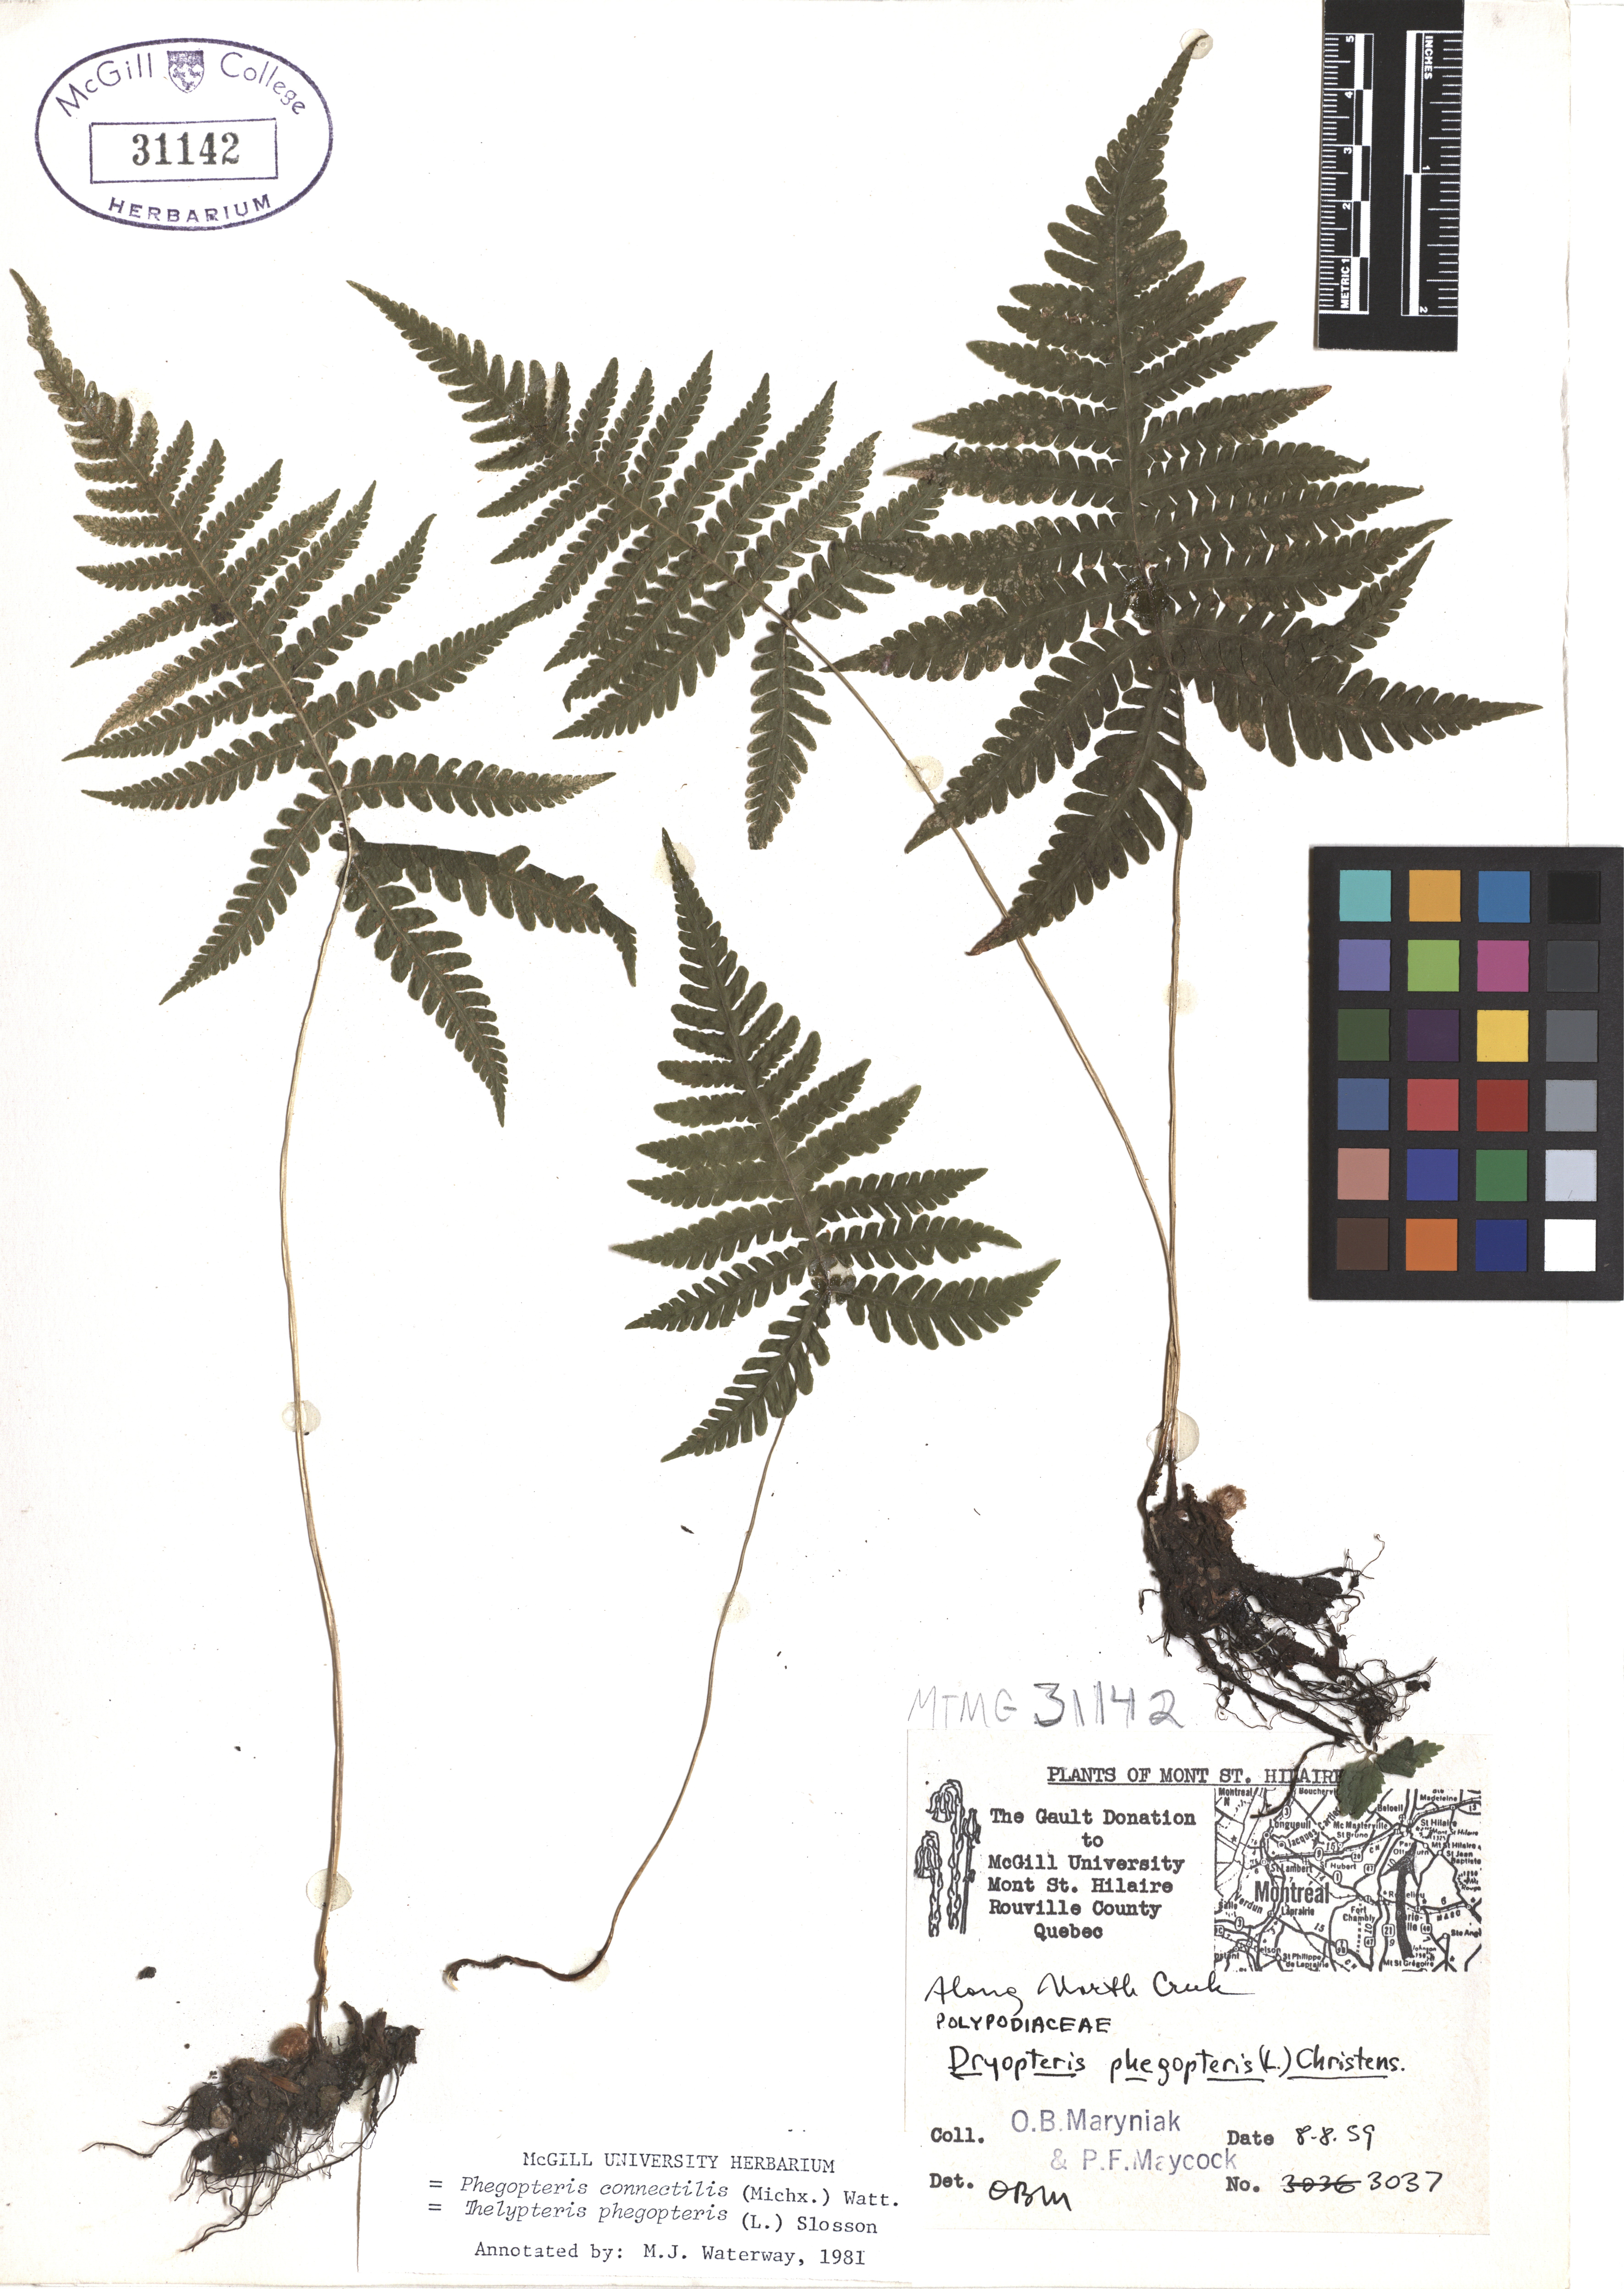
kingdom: Plantae
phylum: Tracheophyta
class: Polypodiopsida
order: Polypodiales
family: Thelypteridaceae
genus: Phegopteris
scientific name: Phegopteris connectilis
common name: Beech fern
